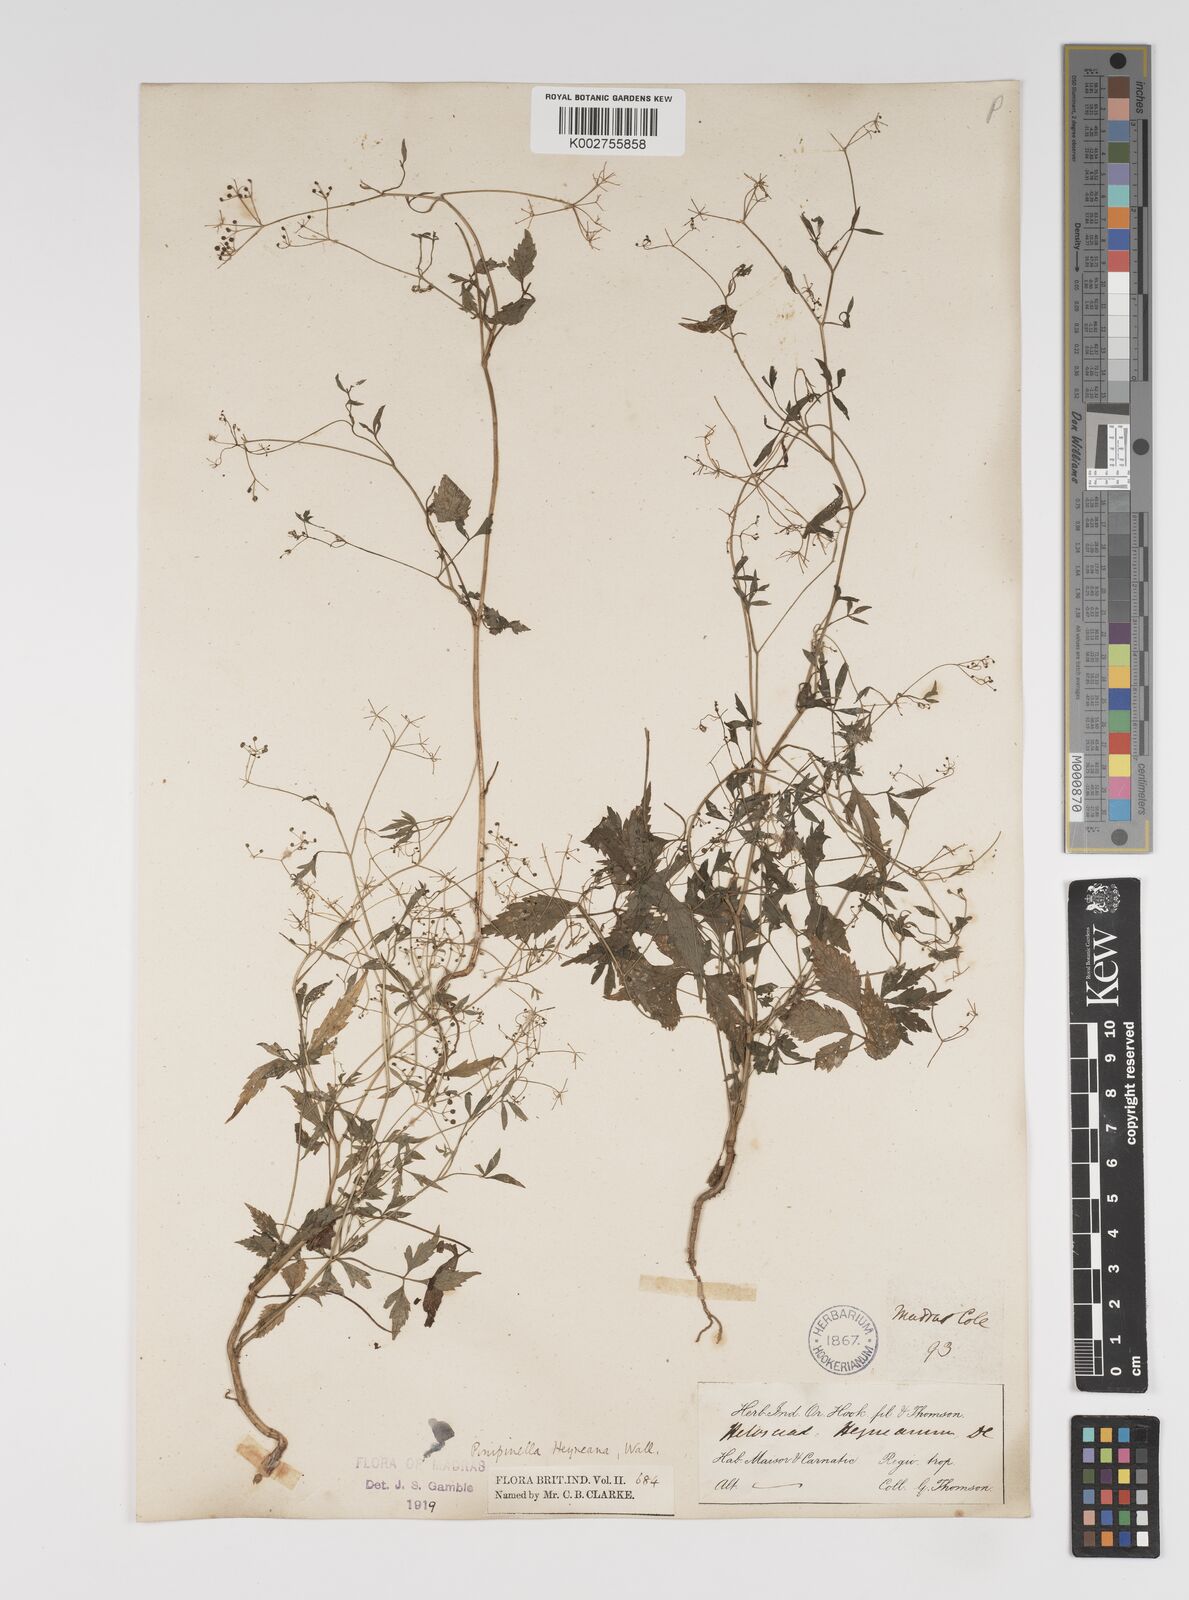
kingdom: Plantae
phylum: Tracheophyta
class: Magnoliopsida
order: Apiales
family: Apiaceae
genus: Pimpinella
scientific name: Pimpinella heyneana
